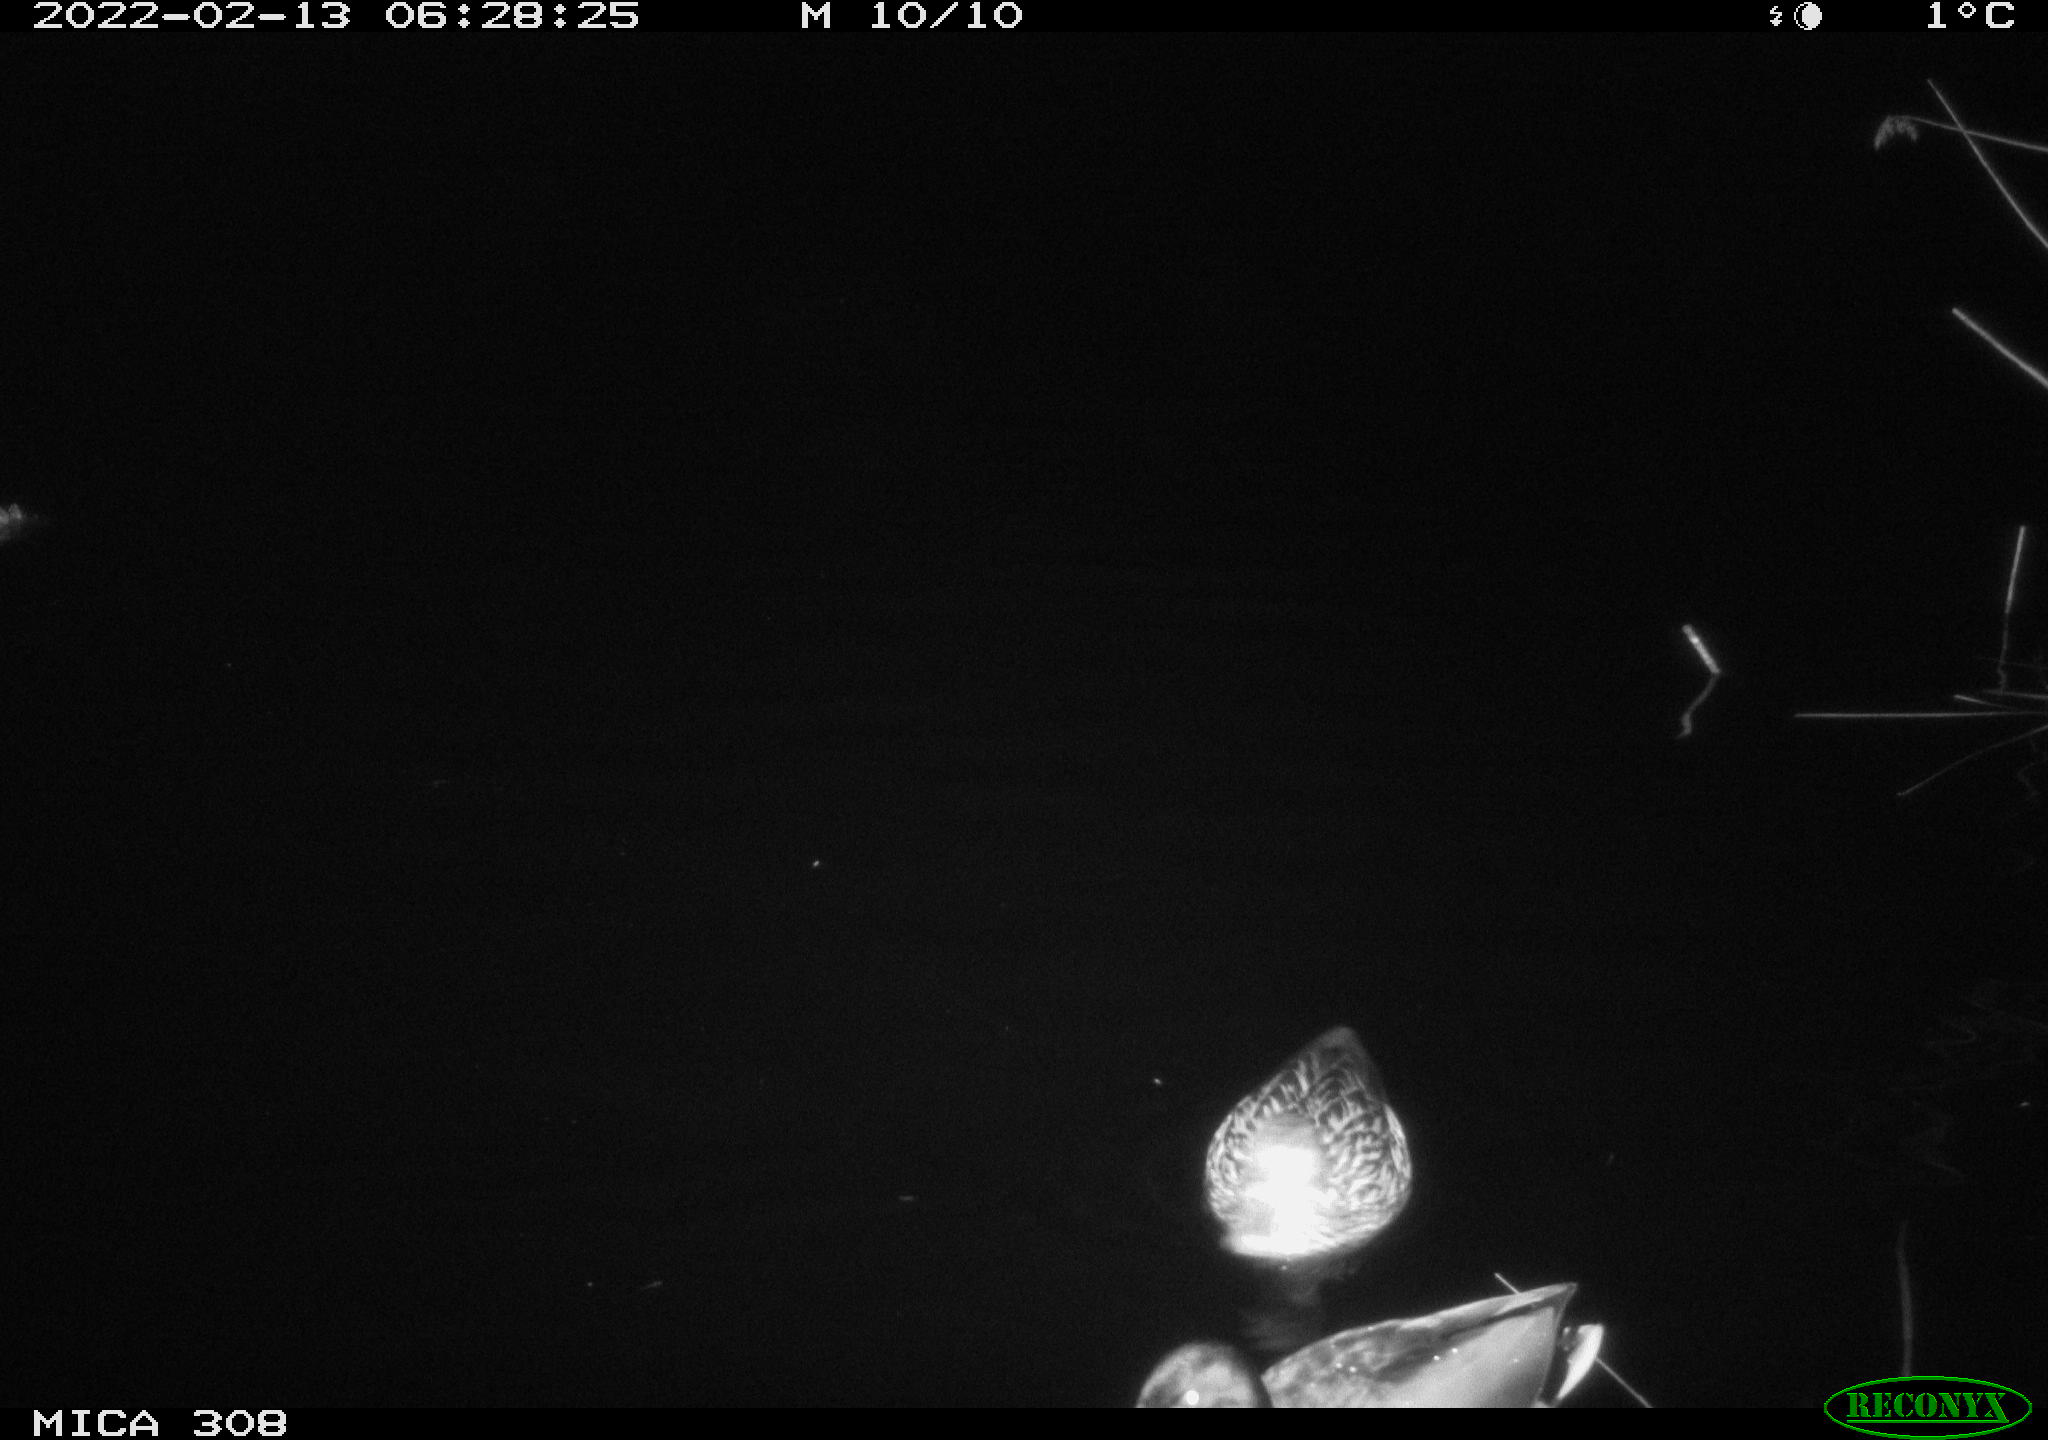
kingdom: Animalia
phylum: Chordata
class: Aves
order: Anseriformes
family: Anatidae
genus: Anas
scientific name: Anas platyrhynchos
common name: Mallard
